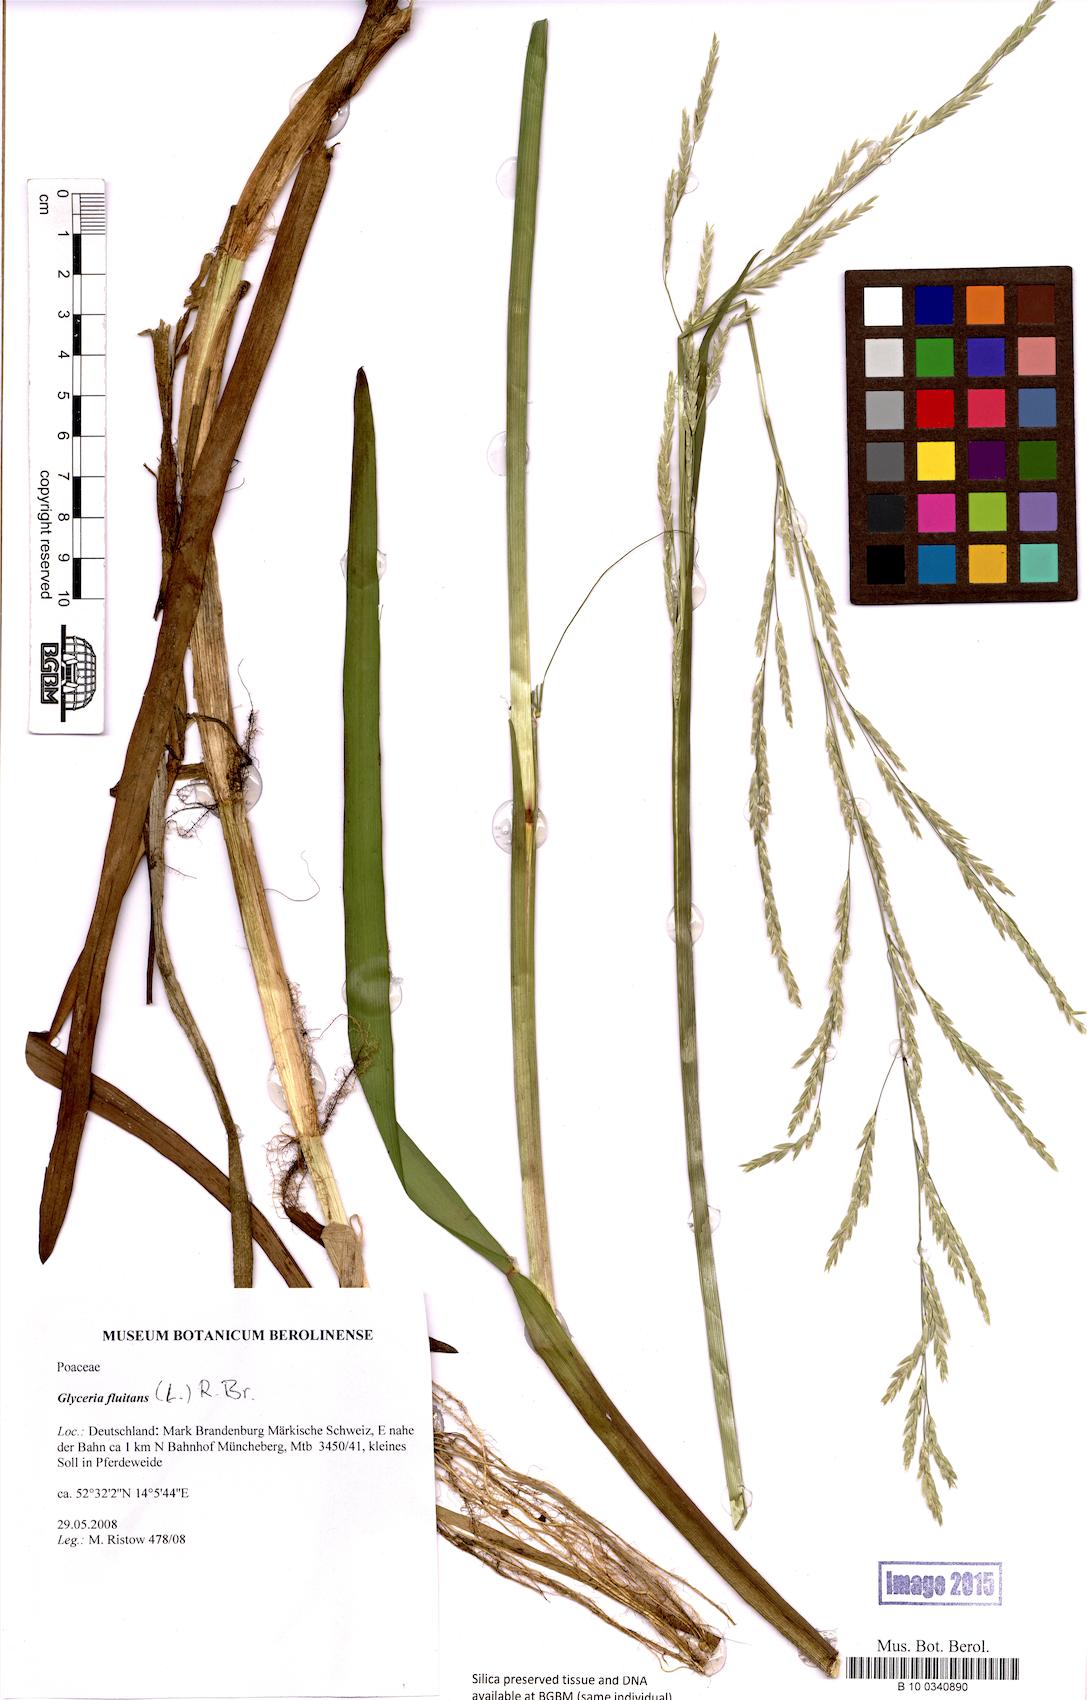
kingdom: Plantae
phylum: Tracheophyta
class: Liliopsida
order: Poales
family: Poaceae
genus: Glyceria
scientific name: Glyceria fluitans
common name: Floating sweet-grass
